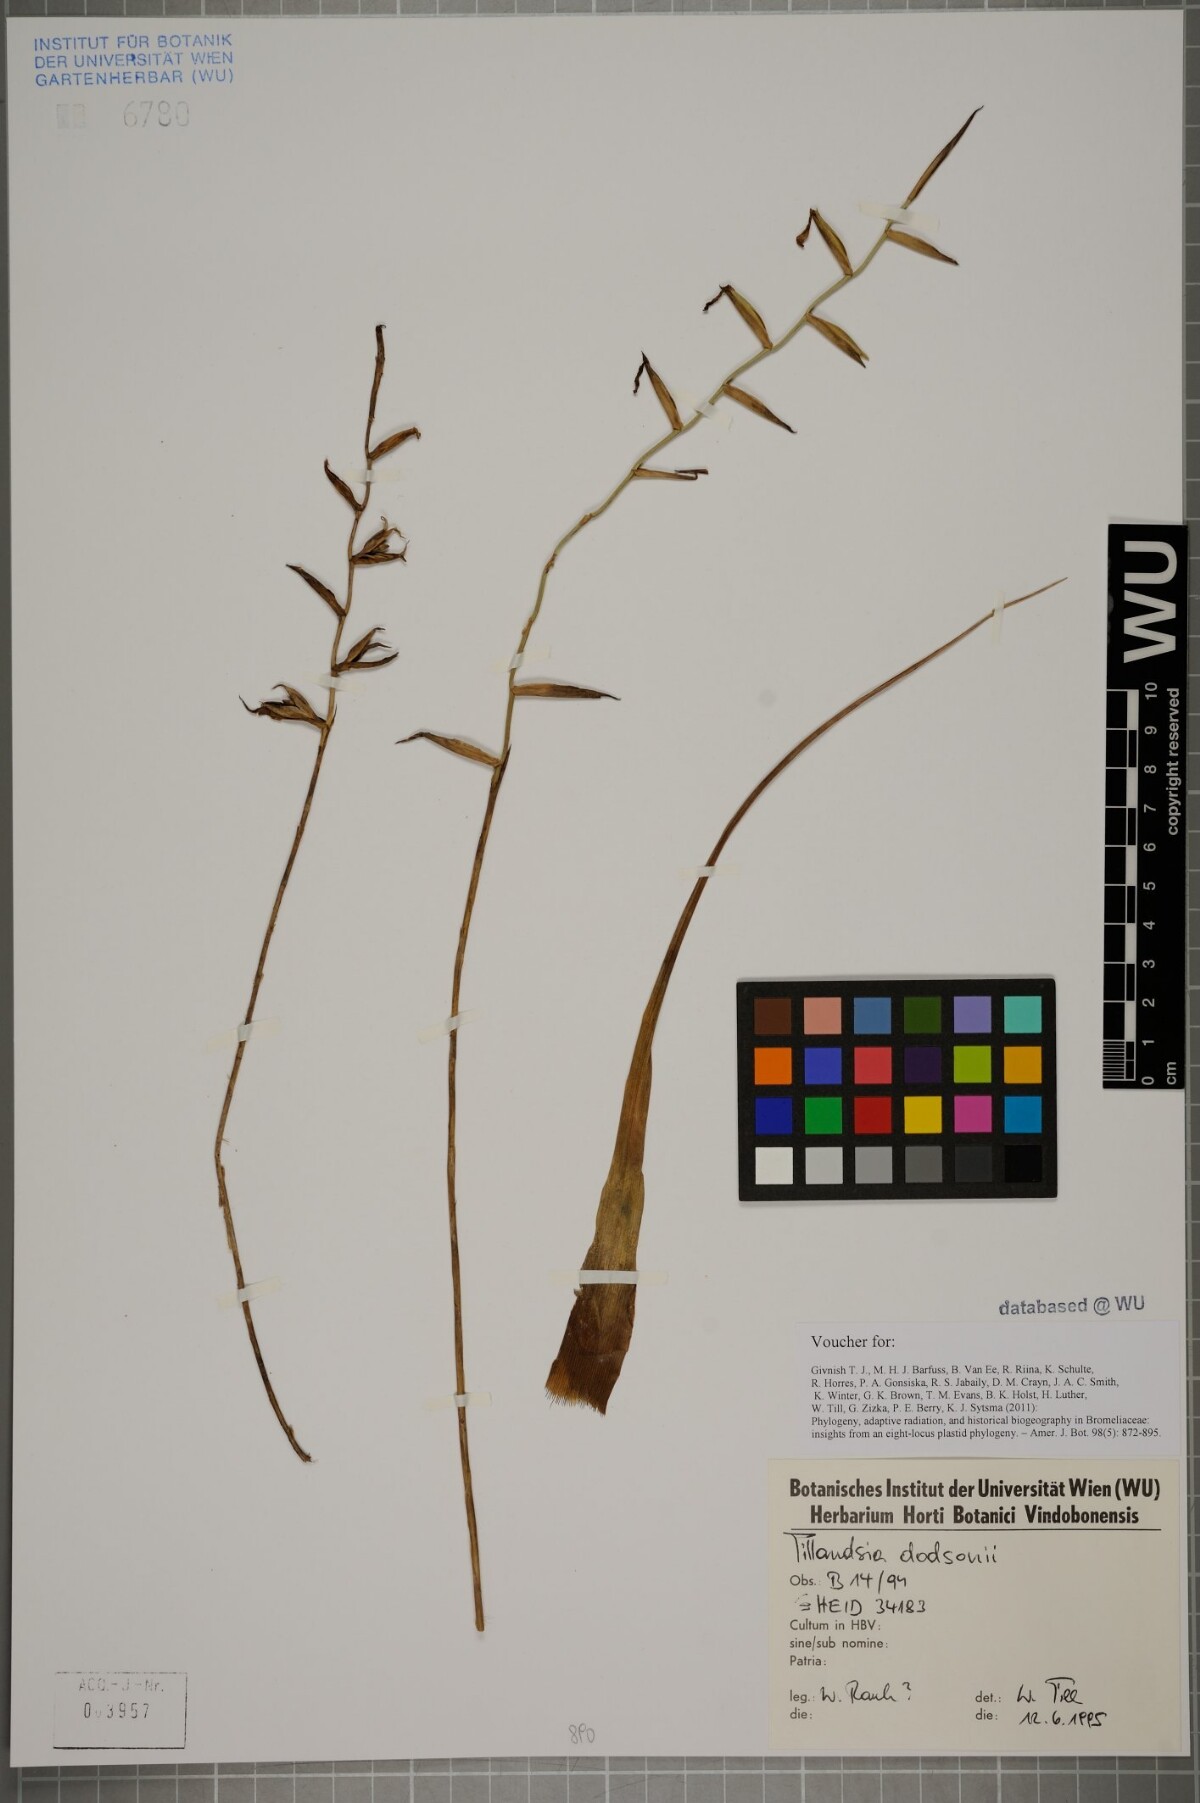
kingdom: Plantae
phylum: Tracheophyta
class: Liliopsida
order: Poales
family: Bromeliaceae
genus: Lemeltonia
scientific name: Lemeltonia dodsonii
